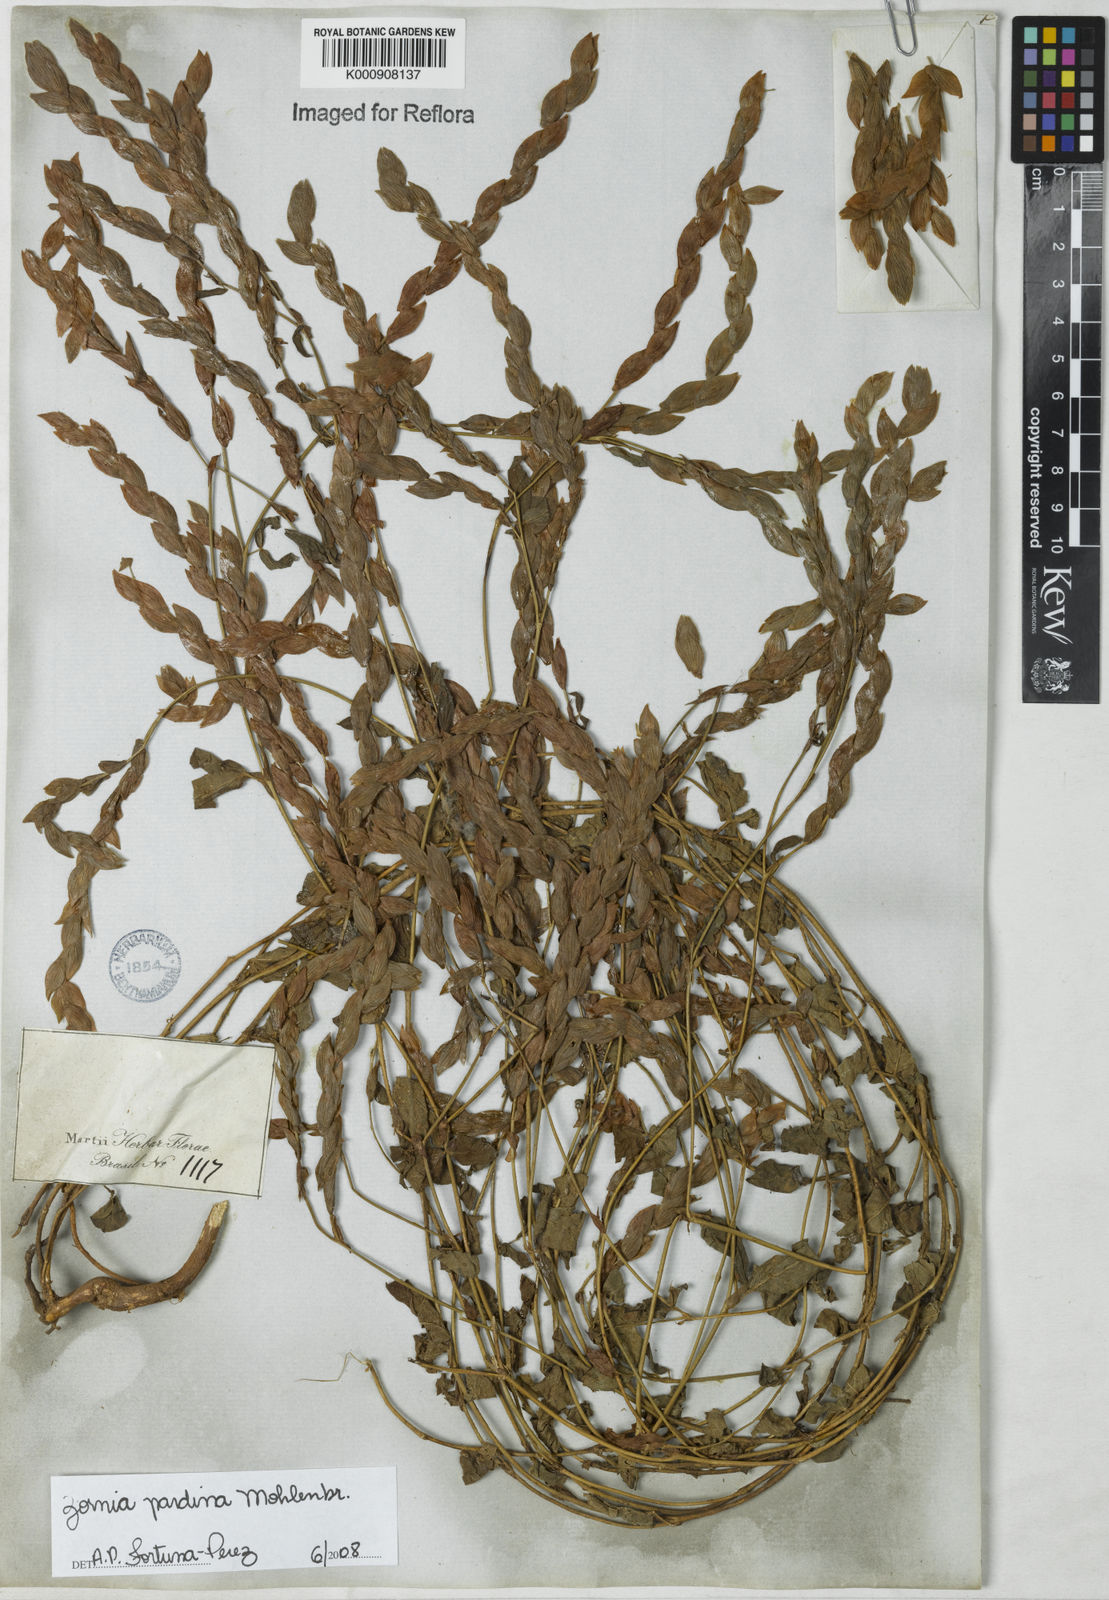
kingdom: Plantae
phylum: Tracheophyta
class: Magnoliopsida
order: Fabales
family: Fabaceae
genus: Zornia
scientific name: Zornia pardina
